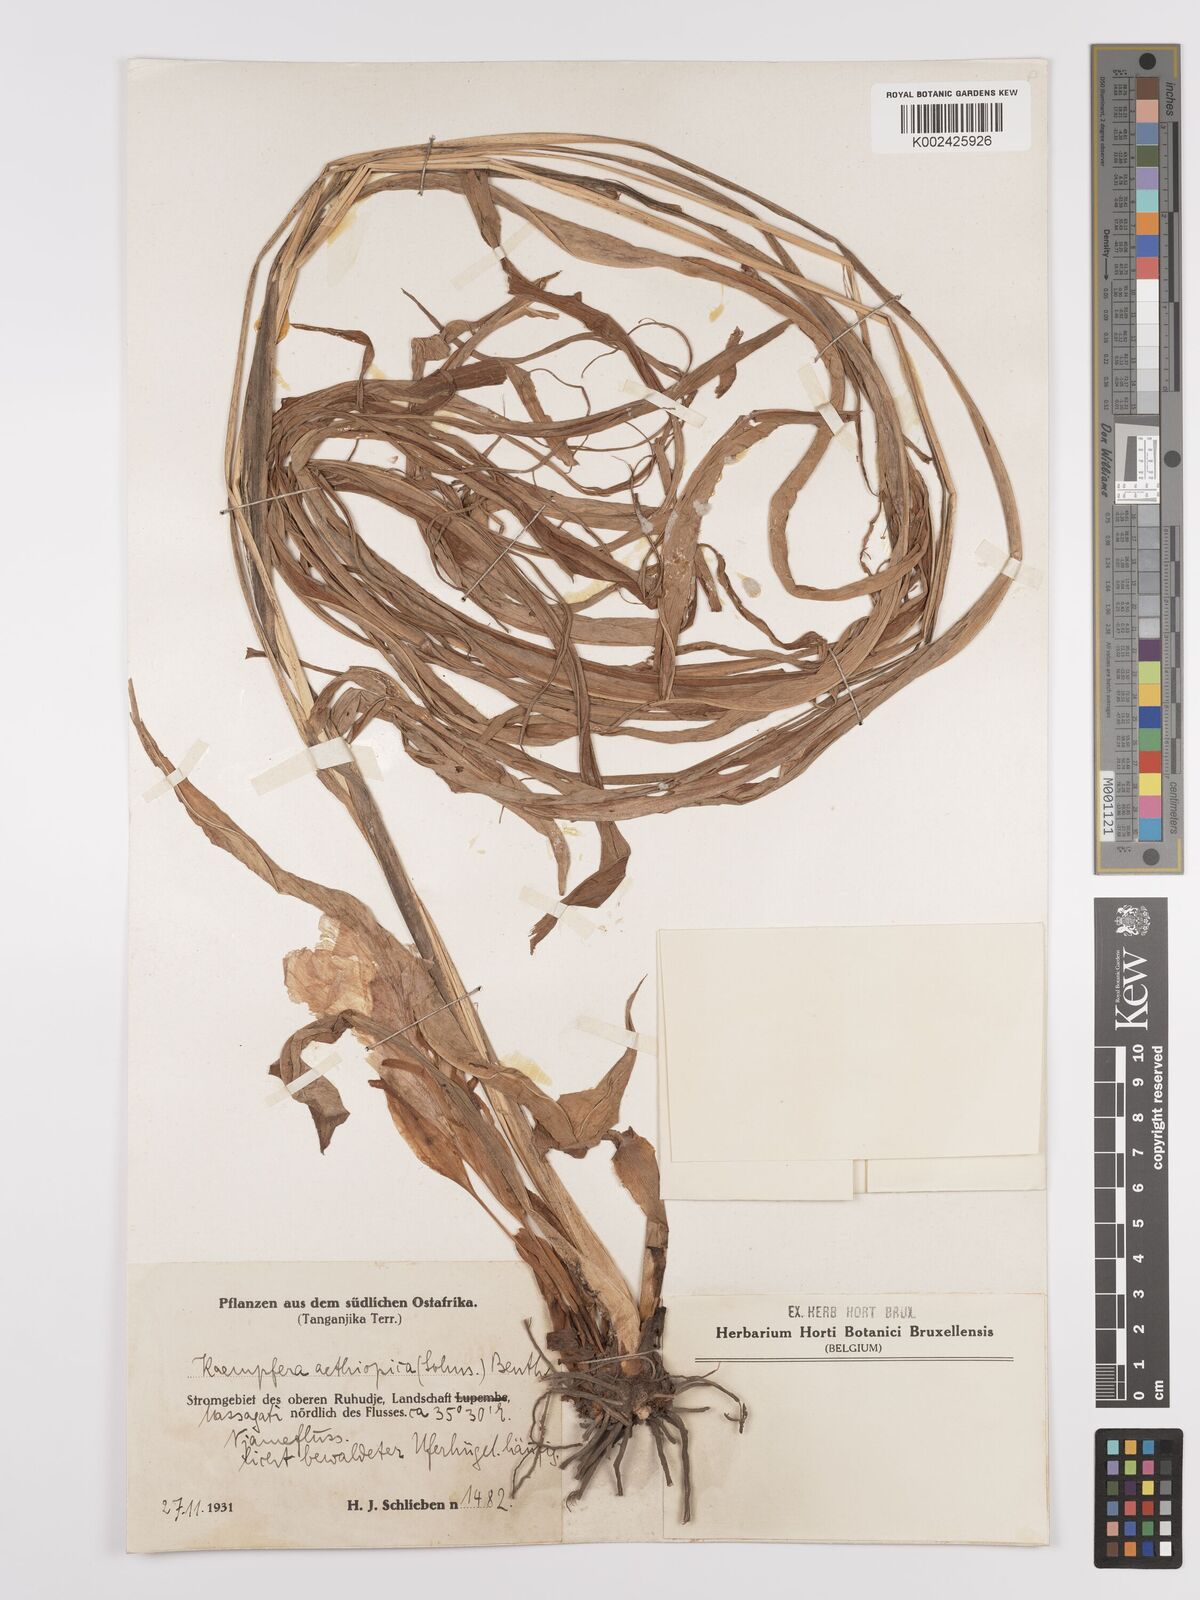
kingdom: Plantae
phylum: Tracheophyta
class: Liliopsida
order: Zingiberales
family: Zingiberaceae
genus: Siphonochilus
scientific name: Siphonochilus aethiopicus
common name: African-ginger
